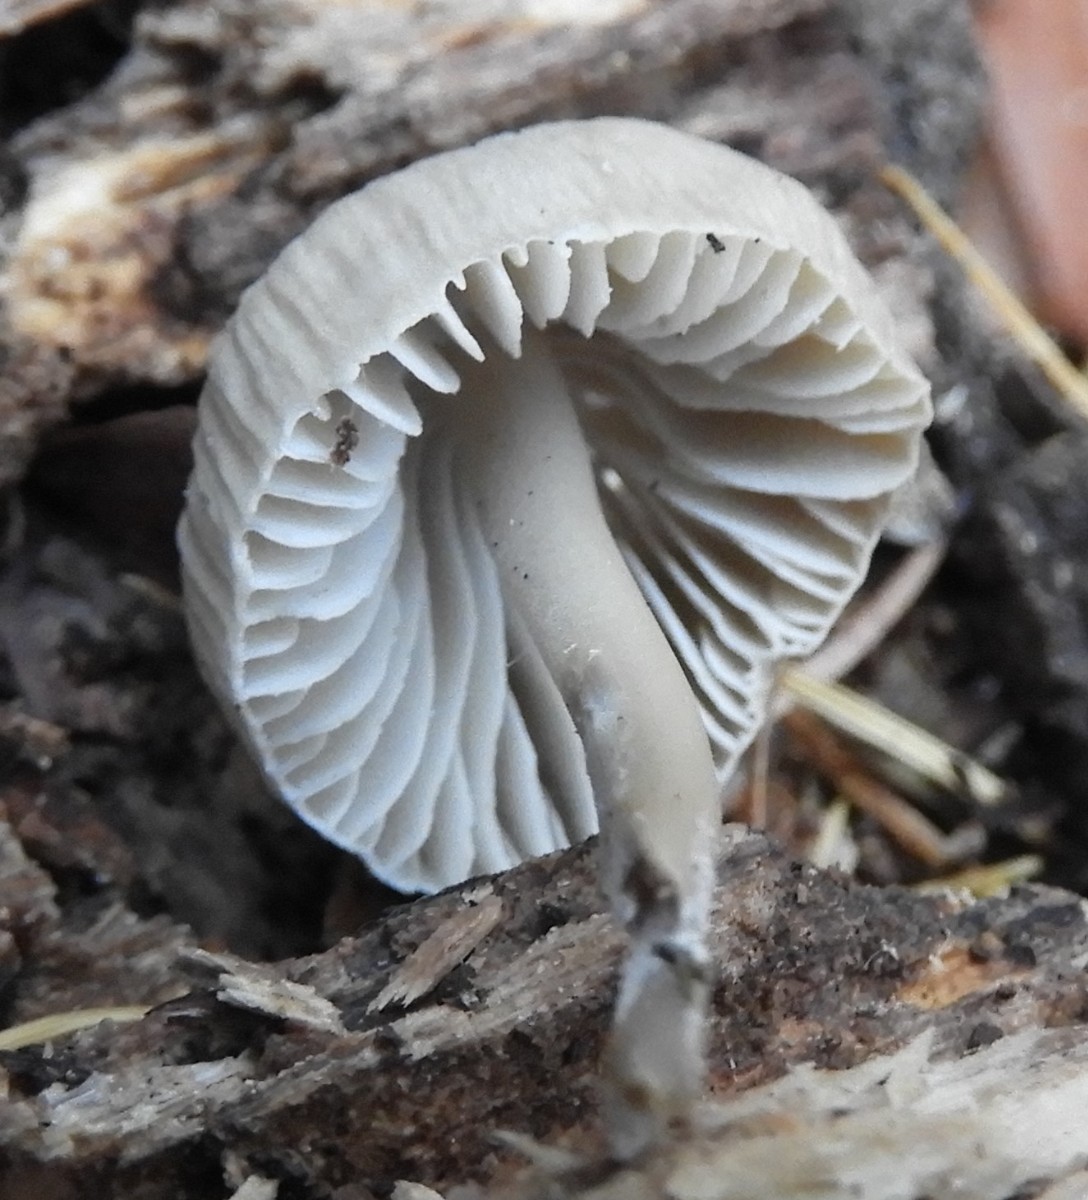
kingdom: Fungi
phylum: Basidiomycota
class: Agaricomycetes
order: Agaricales
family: Mycenaceae
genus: Mycena
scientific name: Mycena galericulata
